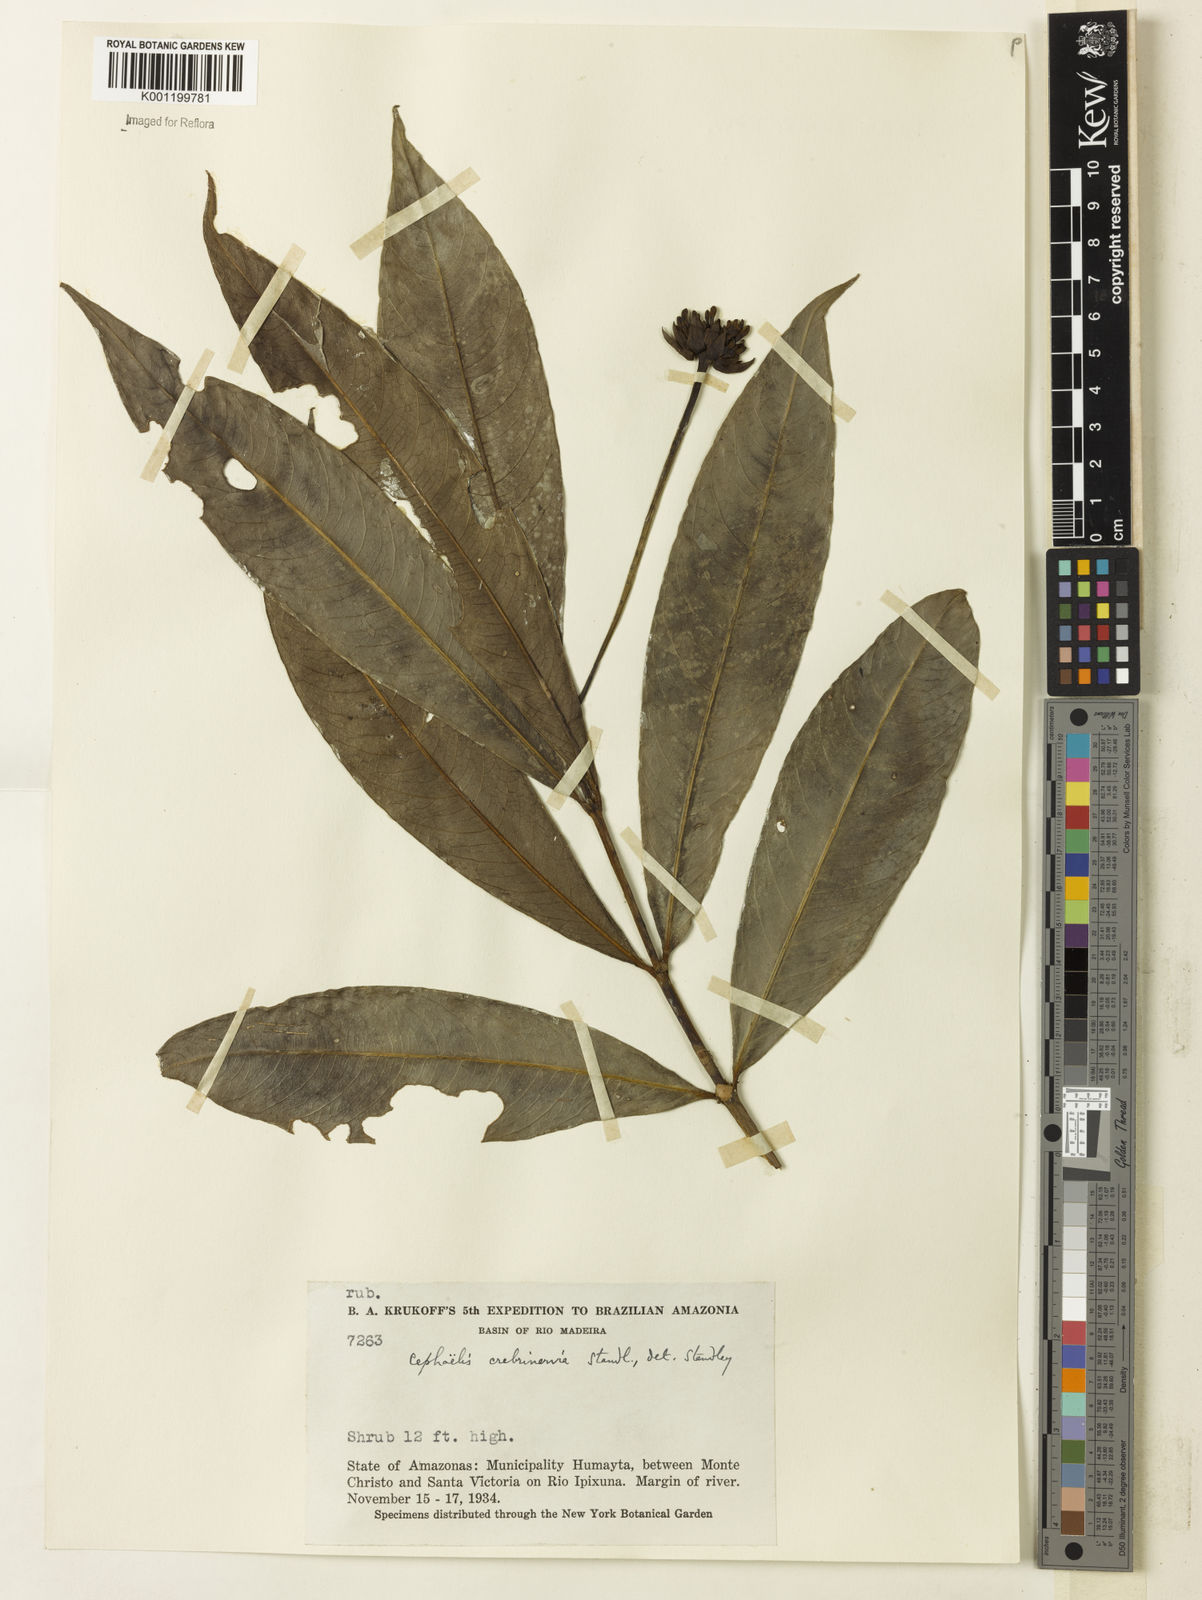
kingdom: Plantae
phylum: Tracheophyta
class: Magnoliopsida
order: Gentianales
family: Rubiaceae
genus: Carapichea
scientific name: Carapichea crebrinervia
